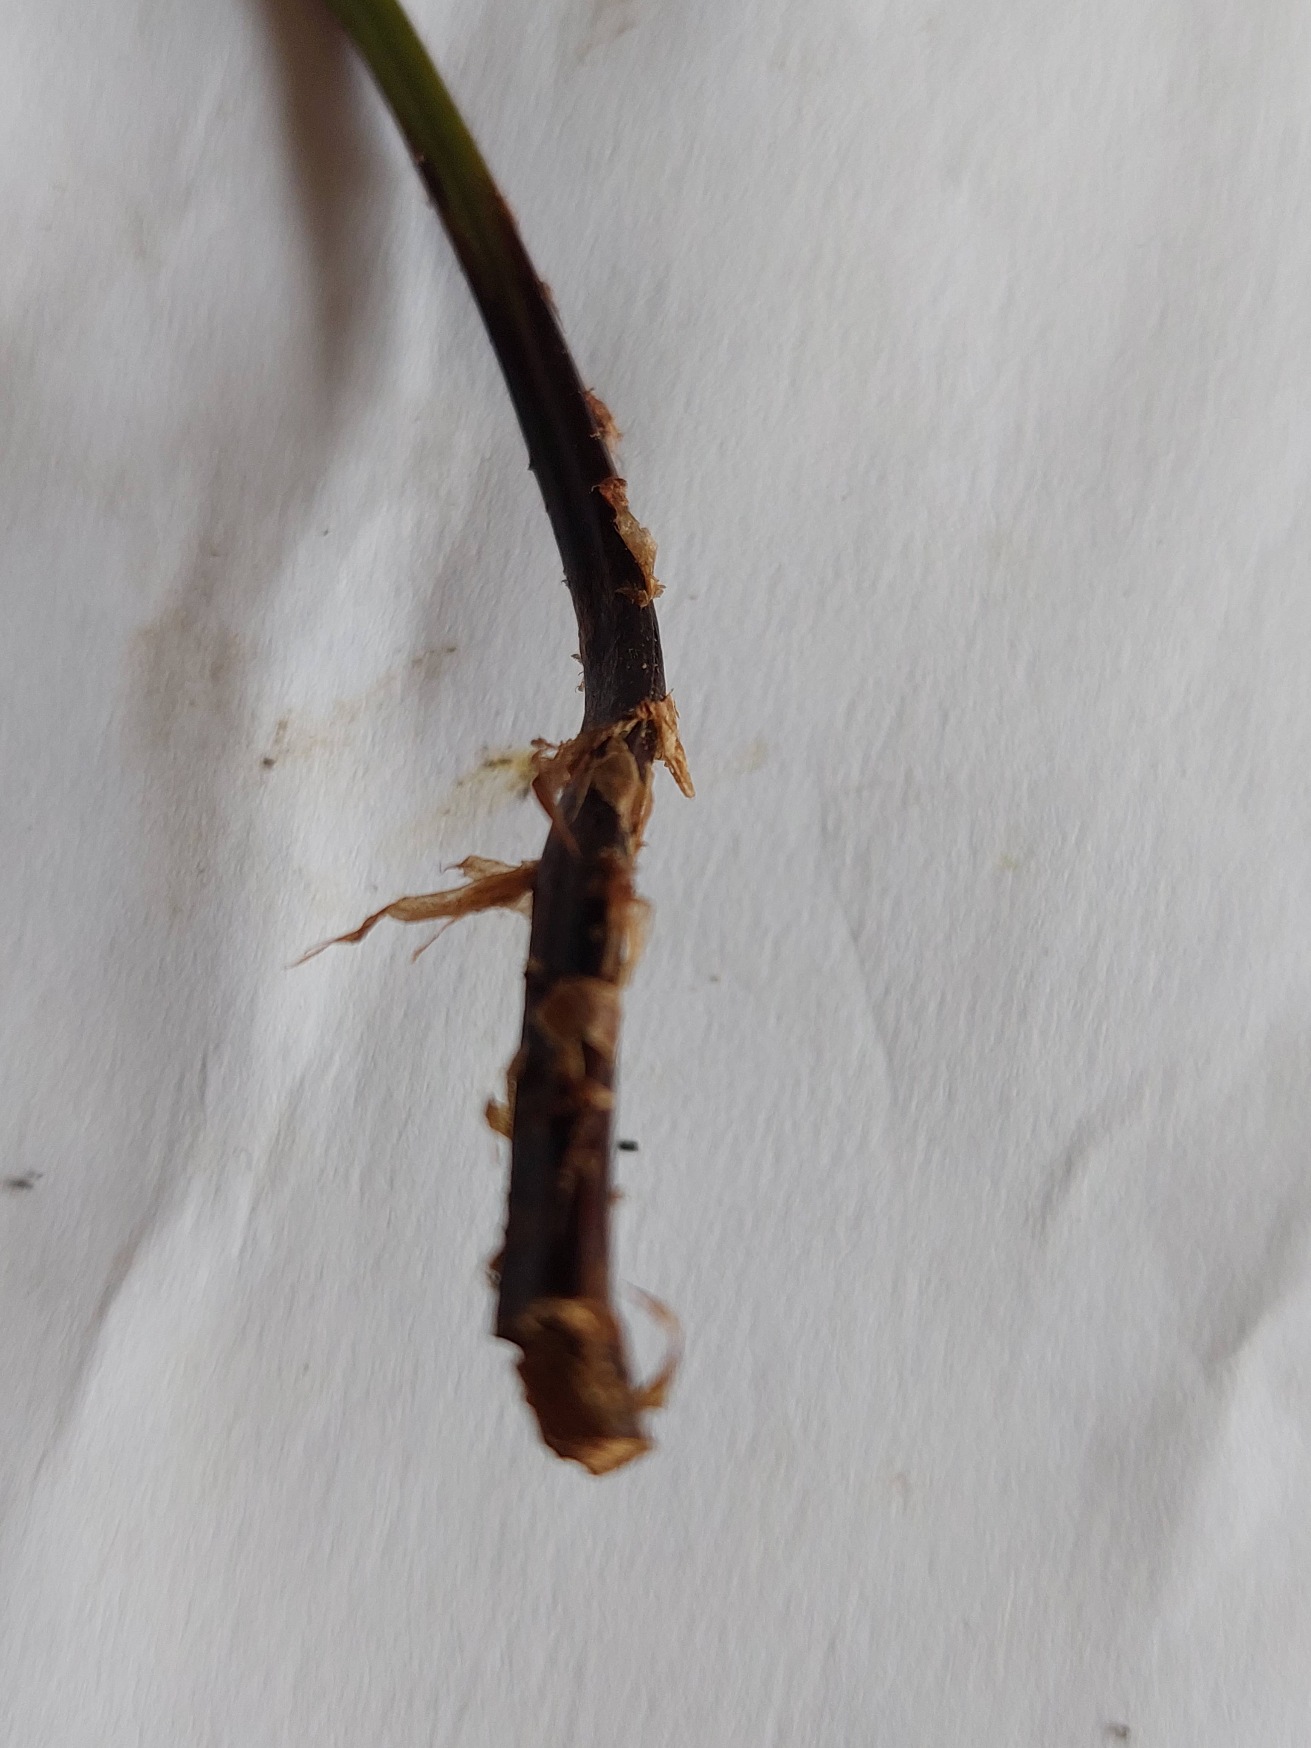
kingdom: Plantae
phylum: Tracheophyta
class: Polypodiopsida
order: Polypodiales
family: Dryopteridaceae
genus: Dryopteris
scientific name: Dryopteris dilatata
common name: Bredbladet mangeløv
